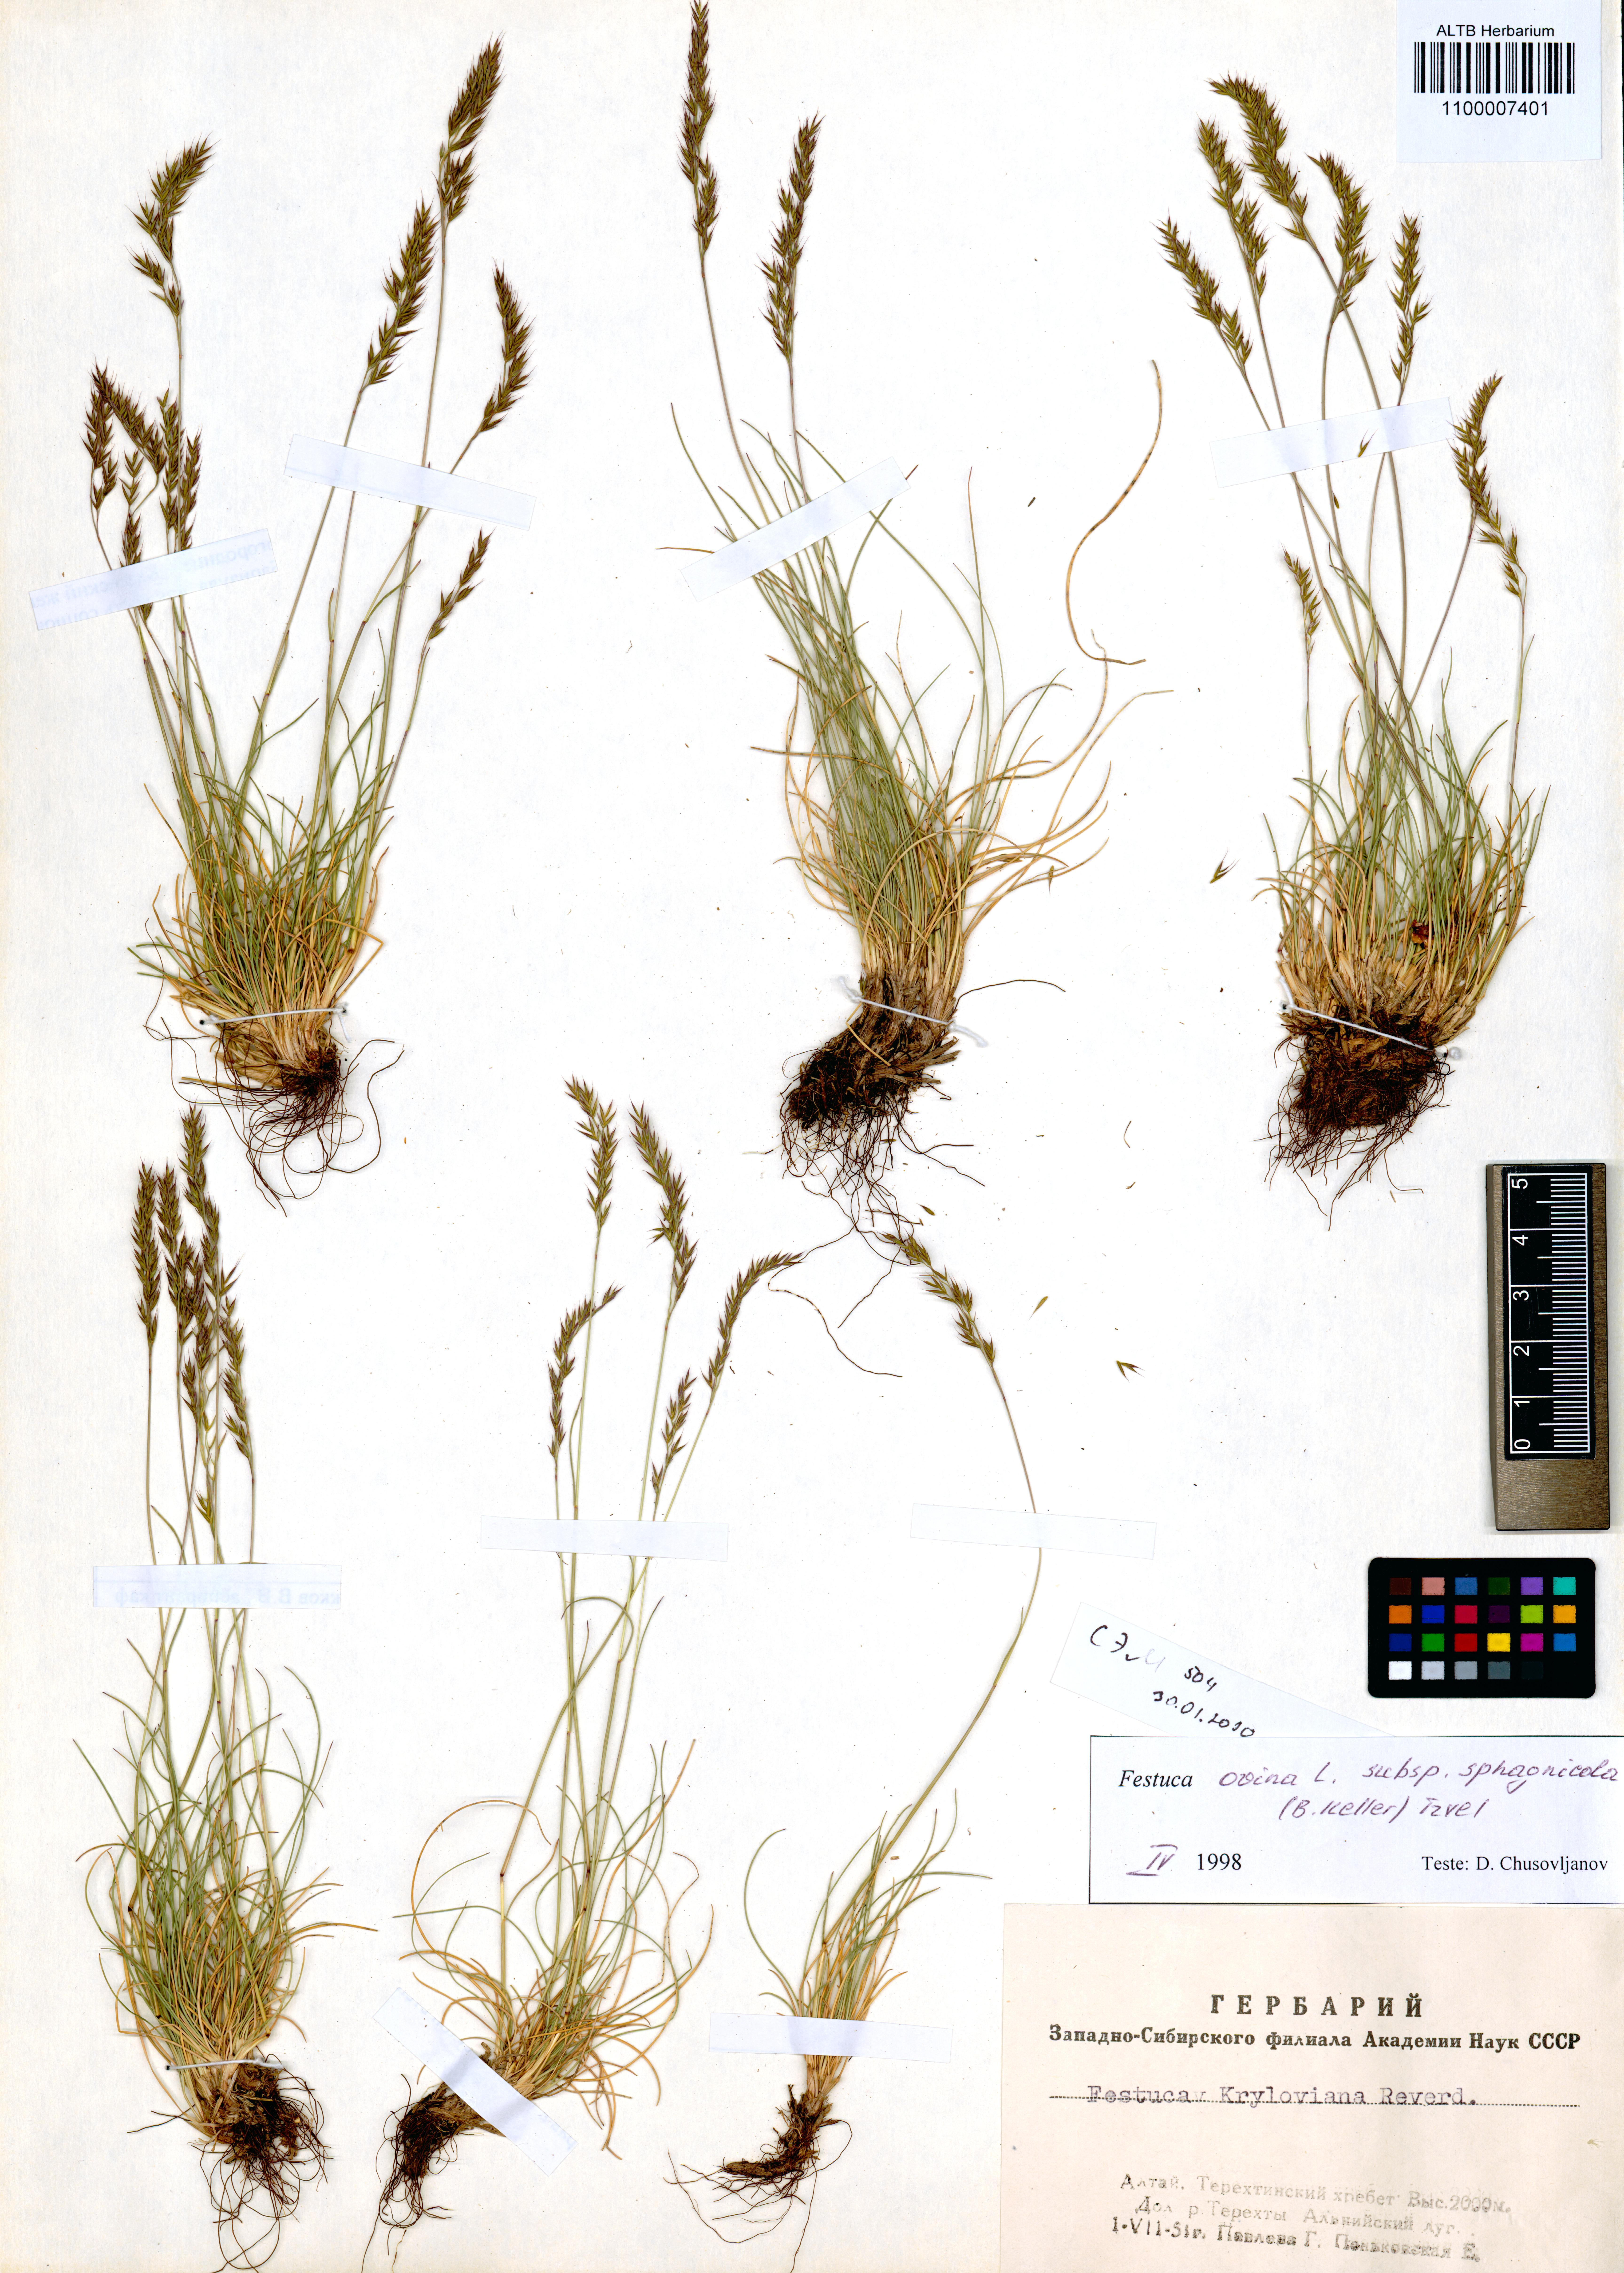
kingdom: Plantae
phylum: Tracheophyta
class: Liliopsida
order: Poales
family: Poaceae
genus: Festuca
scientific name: Festuca
